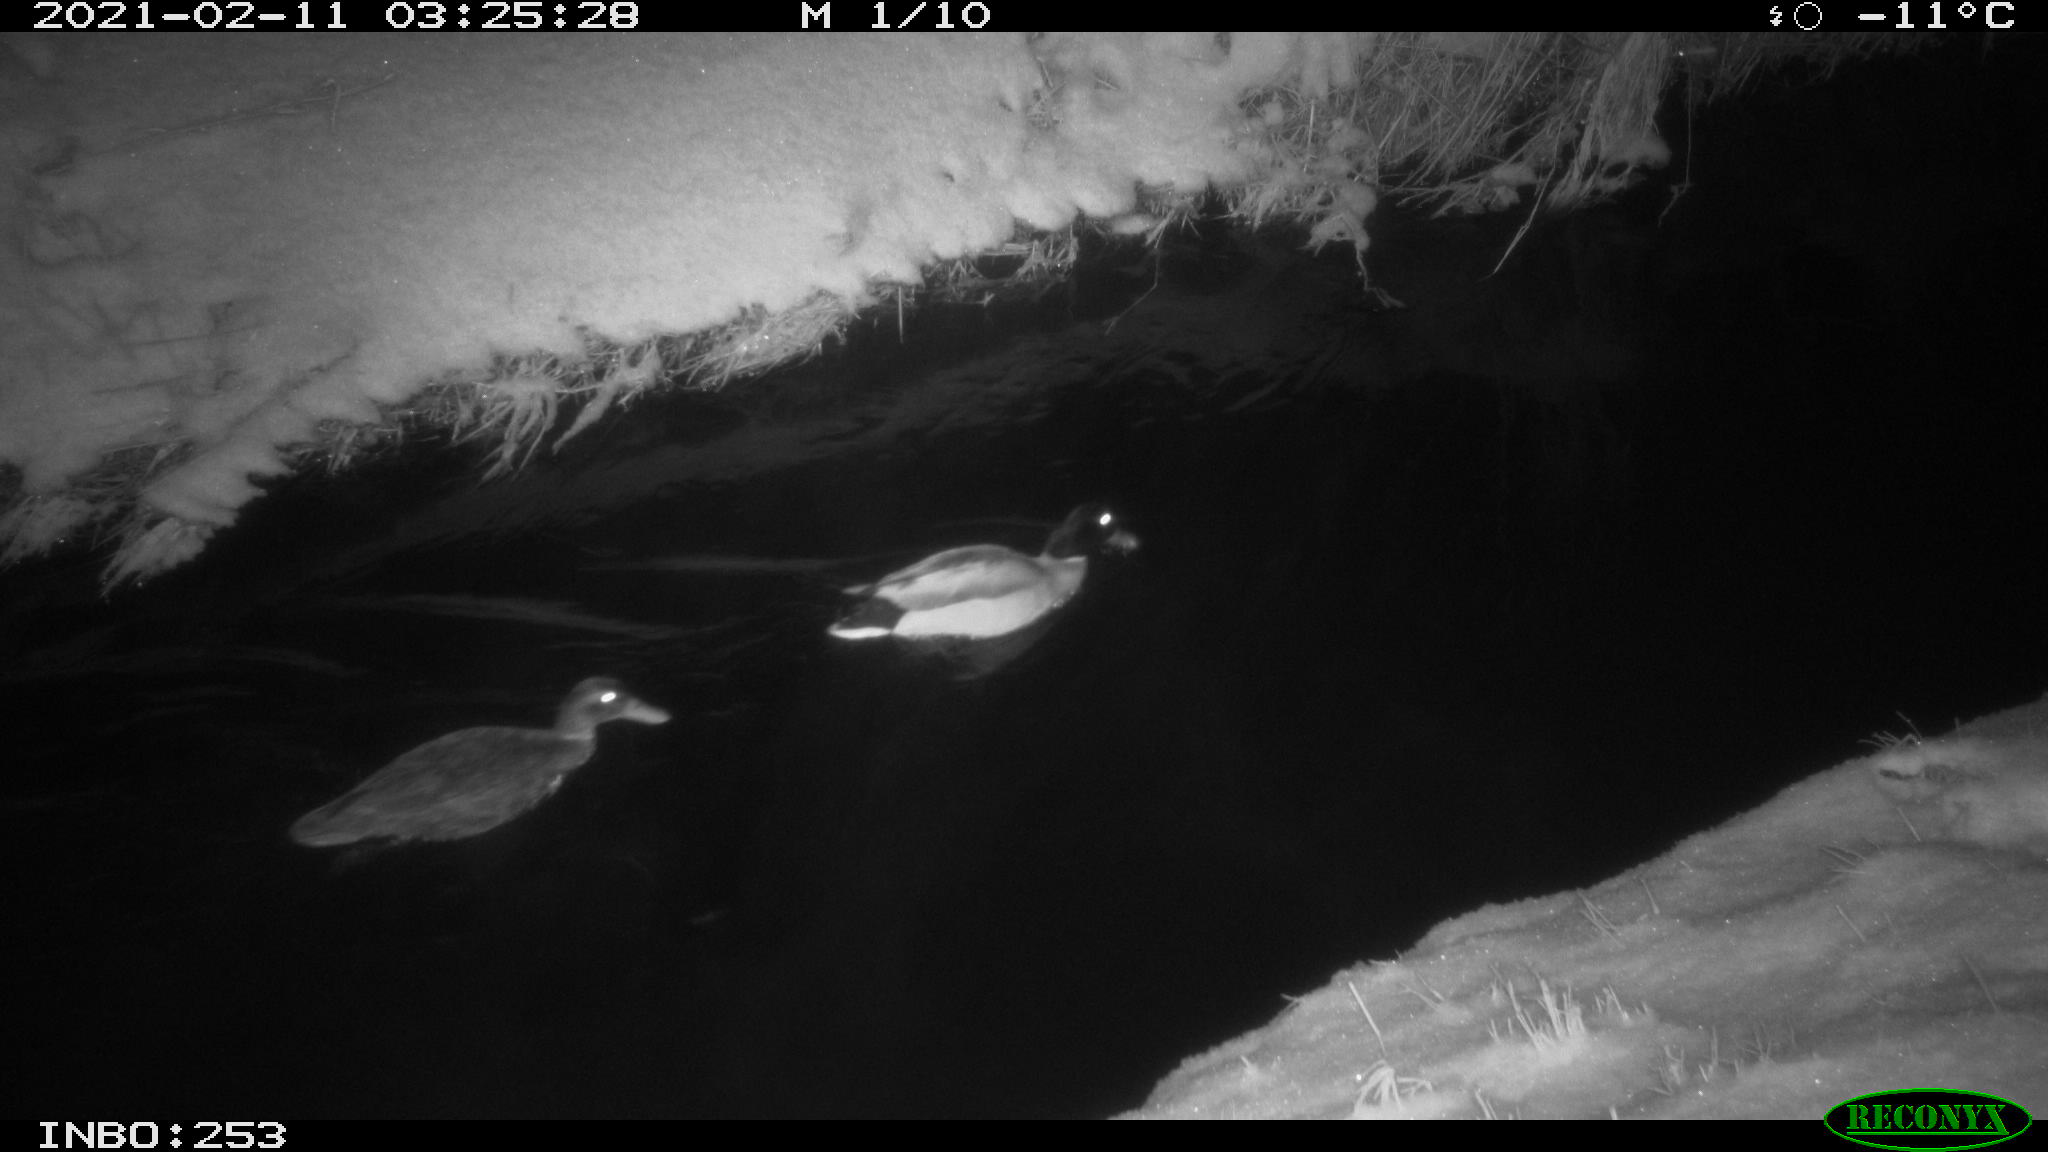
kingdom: Animalia
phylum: Chordata
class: Aves
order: Anseriformes
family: Anatidae
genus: Anas
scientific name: Anas platyrhynchos
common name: Mallard
